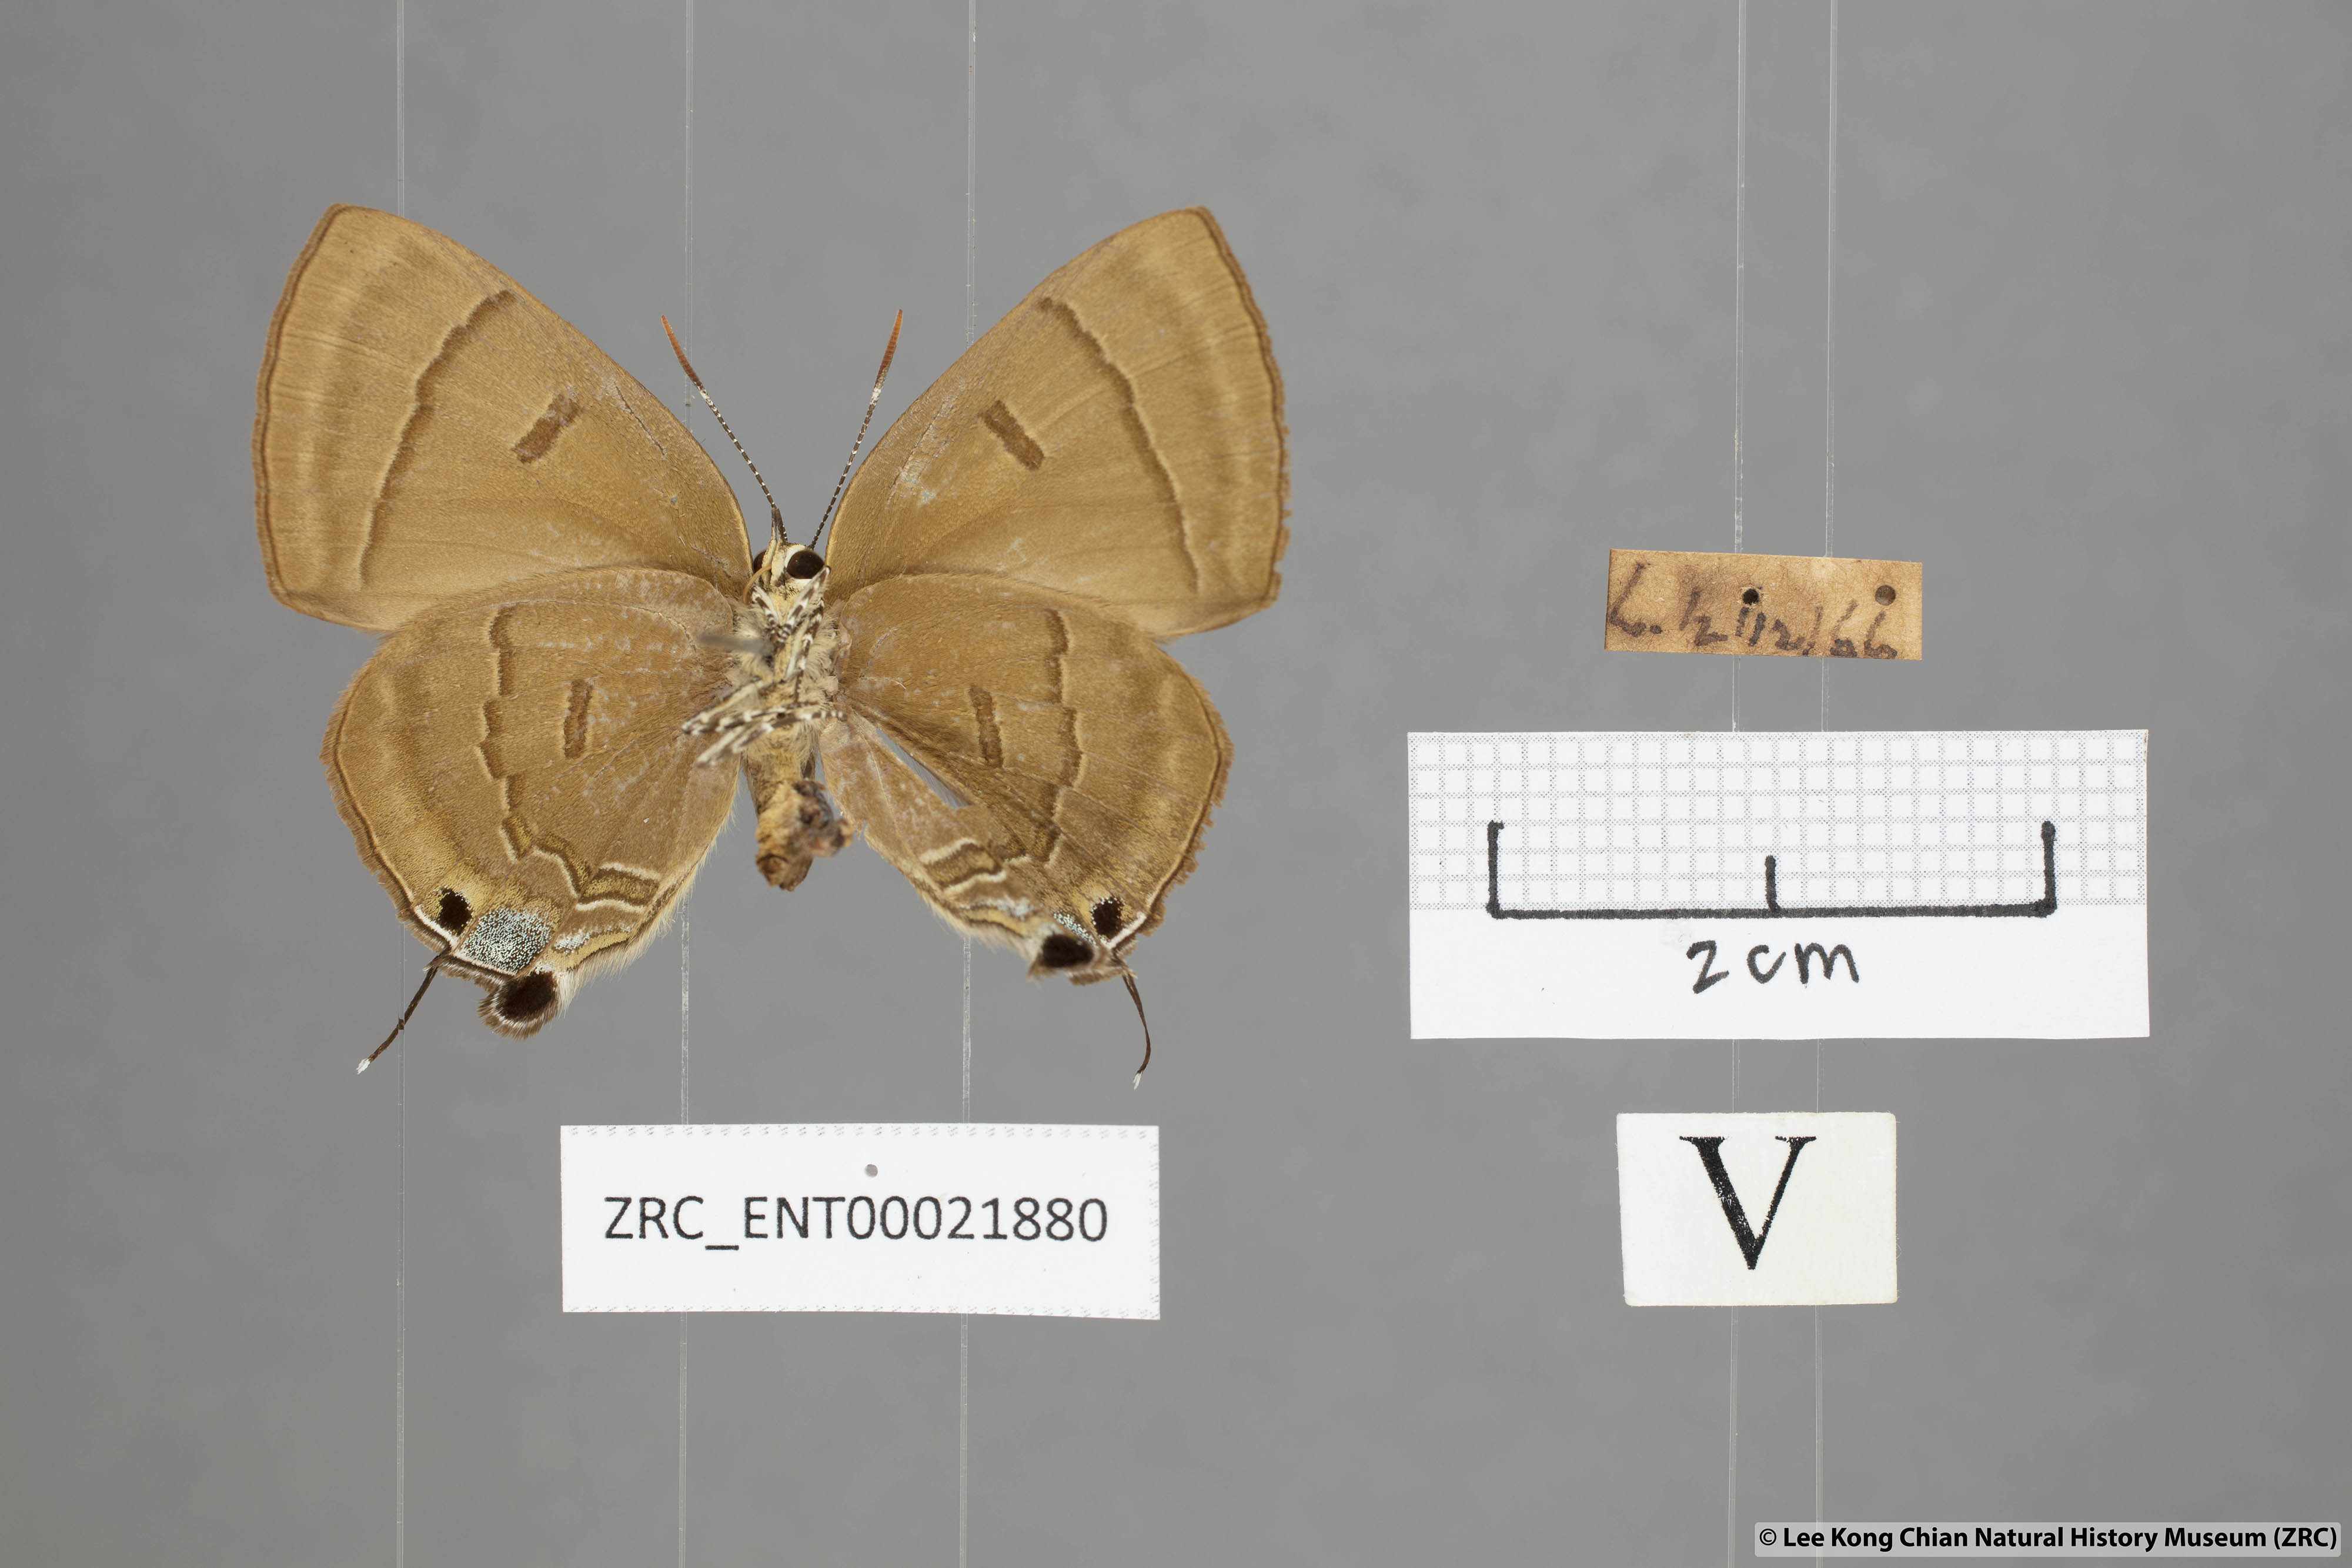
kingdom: Animalia
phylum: Arthropoda
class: Insecta
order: Lepidoptera
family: Lycaenidae
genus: Rapala
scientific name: Rapala pheretima
